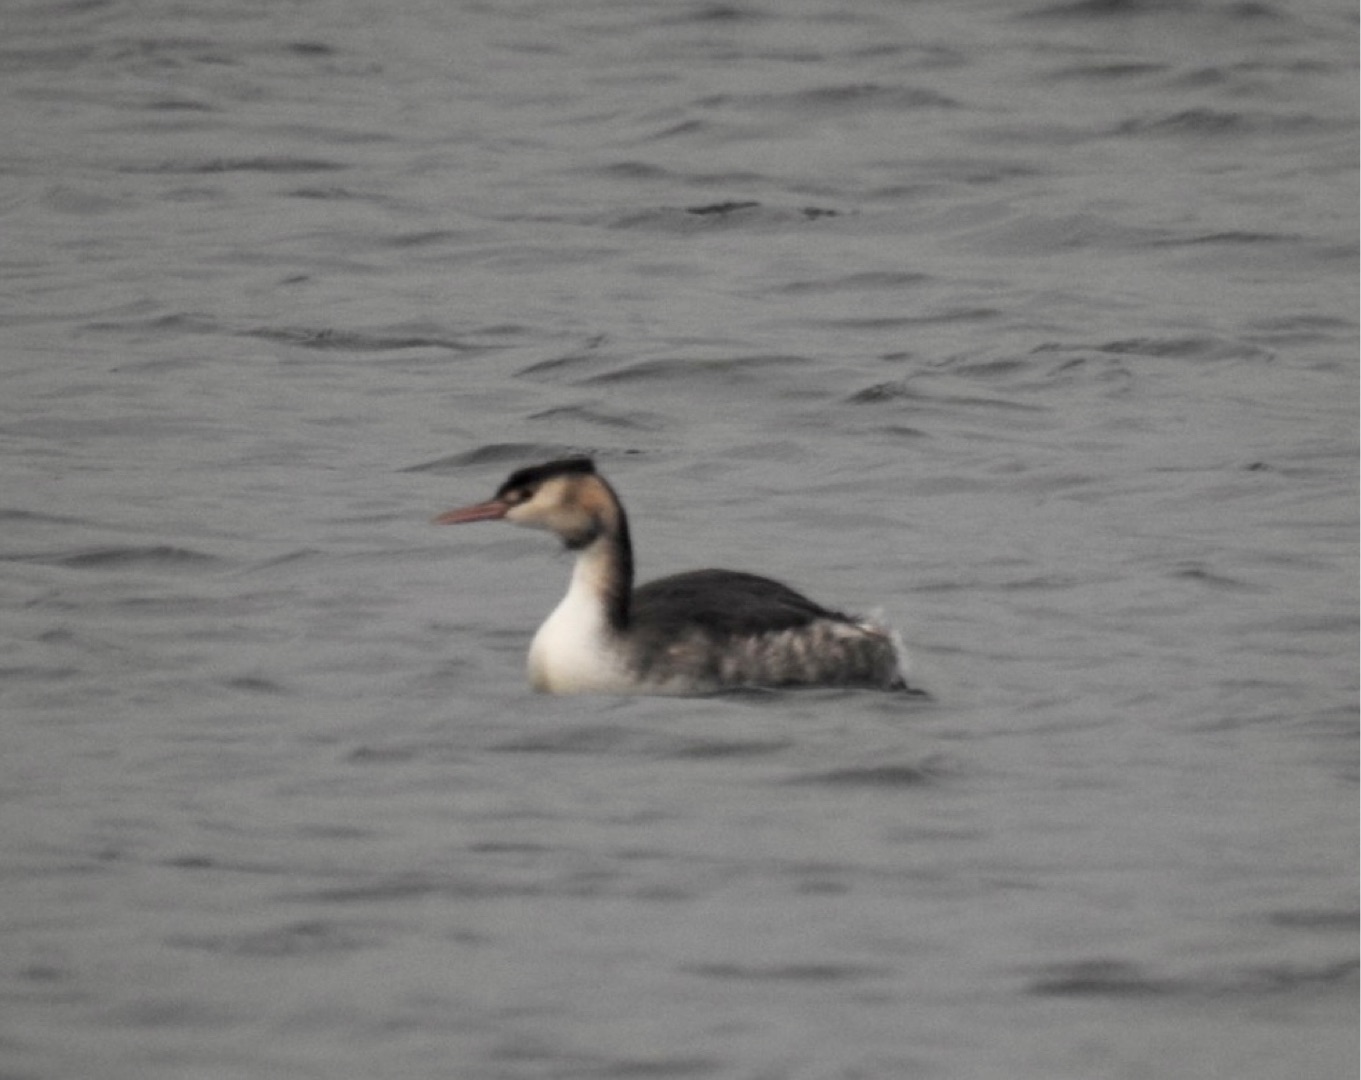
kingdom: Animalia
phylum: Chordata
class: Aves
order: Podicipediformes
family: Podicipedidae
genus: Podiceps
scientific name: Podiceps cristatus
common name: Toppet lappedykker
